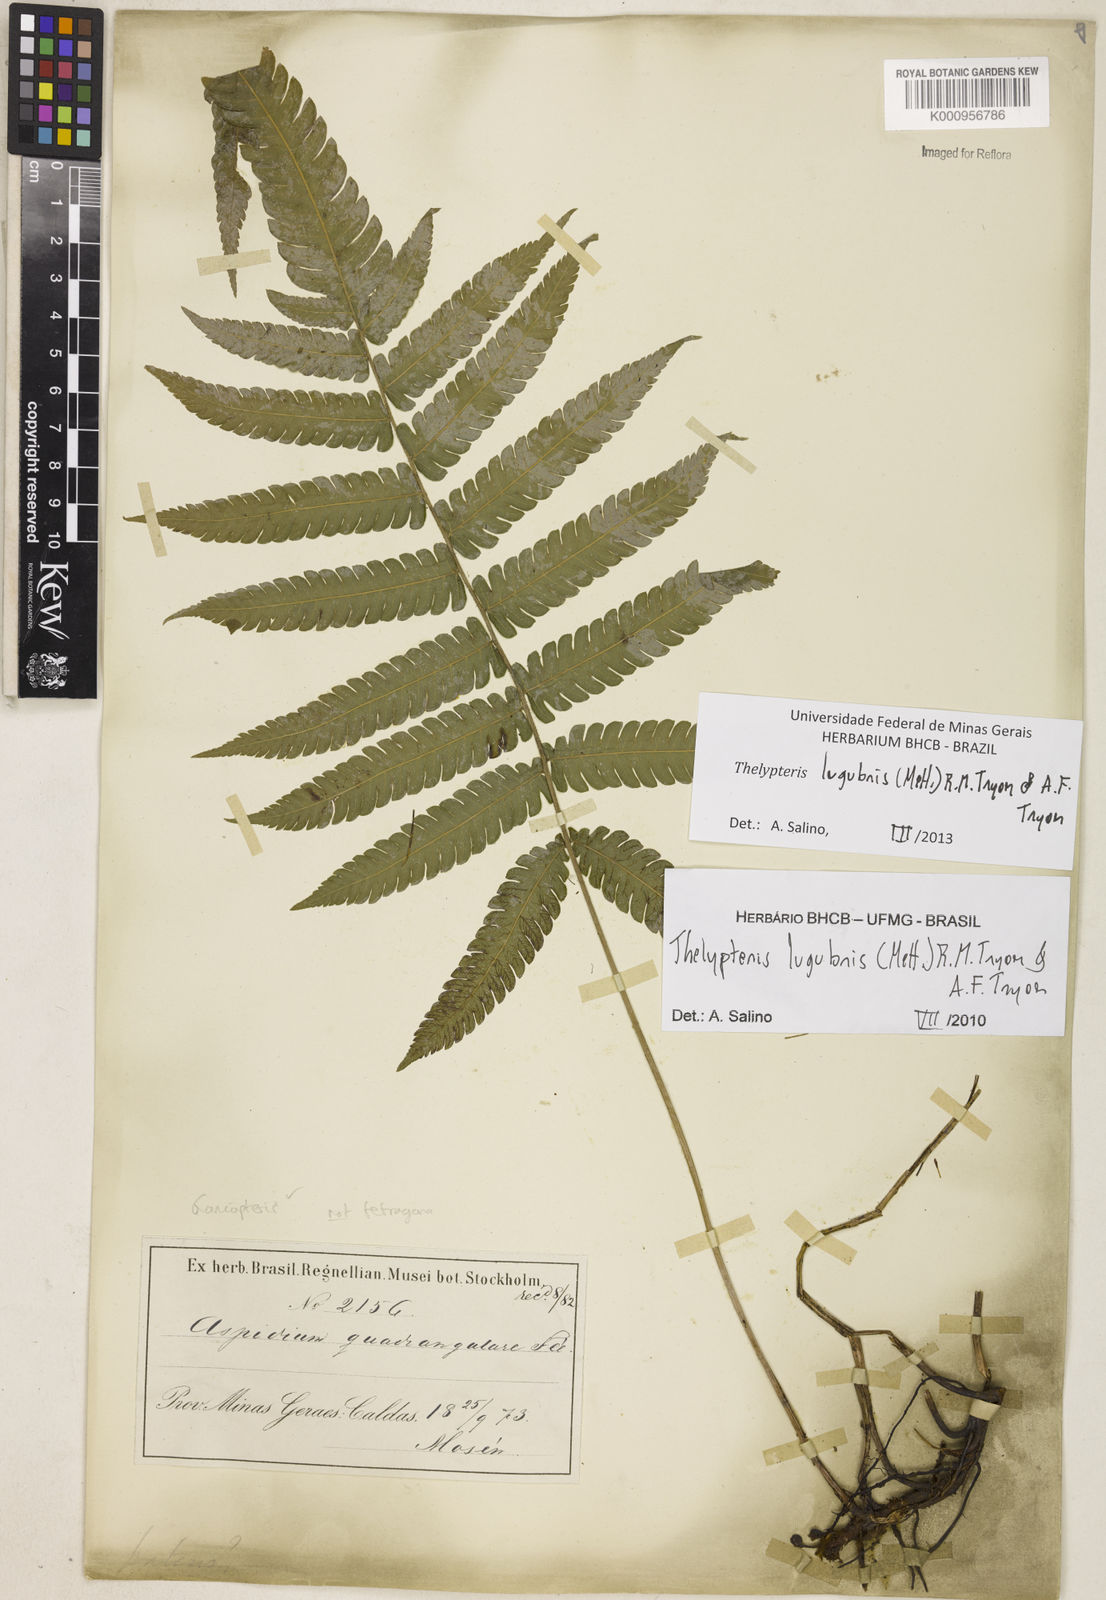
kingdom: Plantae
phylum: Tracheophyta
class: Polypodiopsida
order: Polypodiales
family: Thelypteridaceae
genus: Goniopteris
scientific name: Goniopteris lugubris
